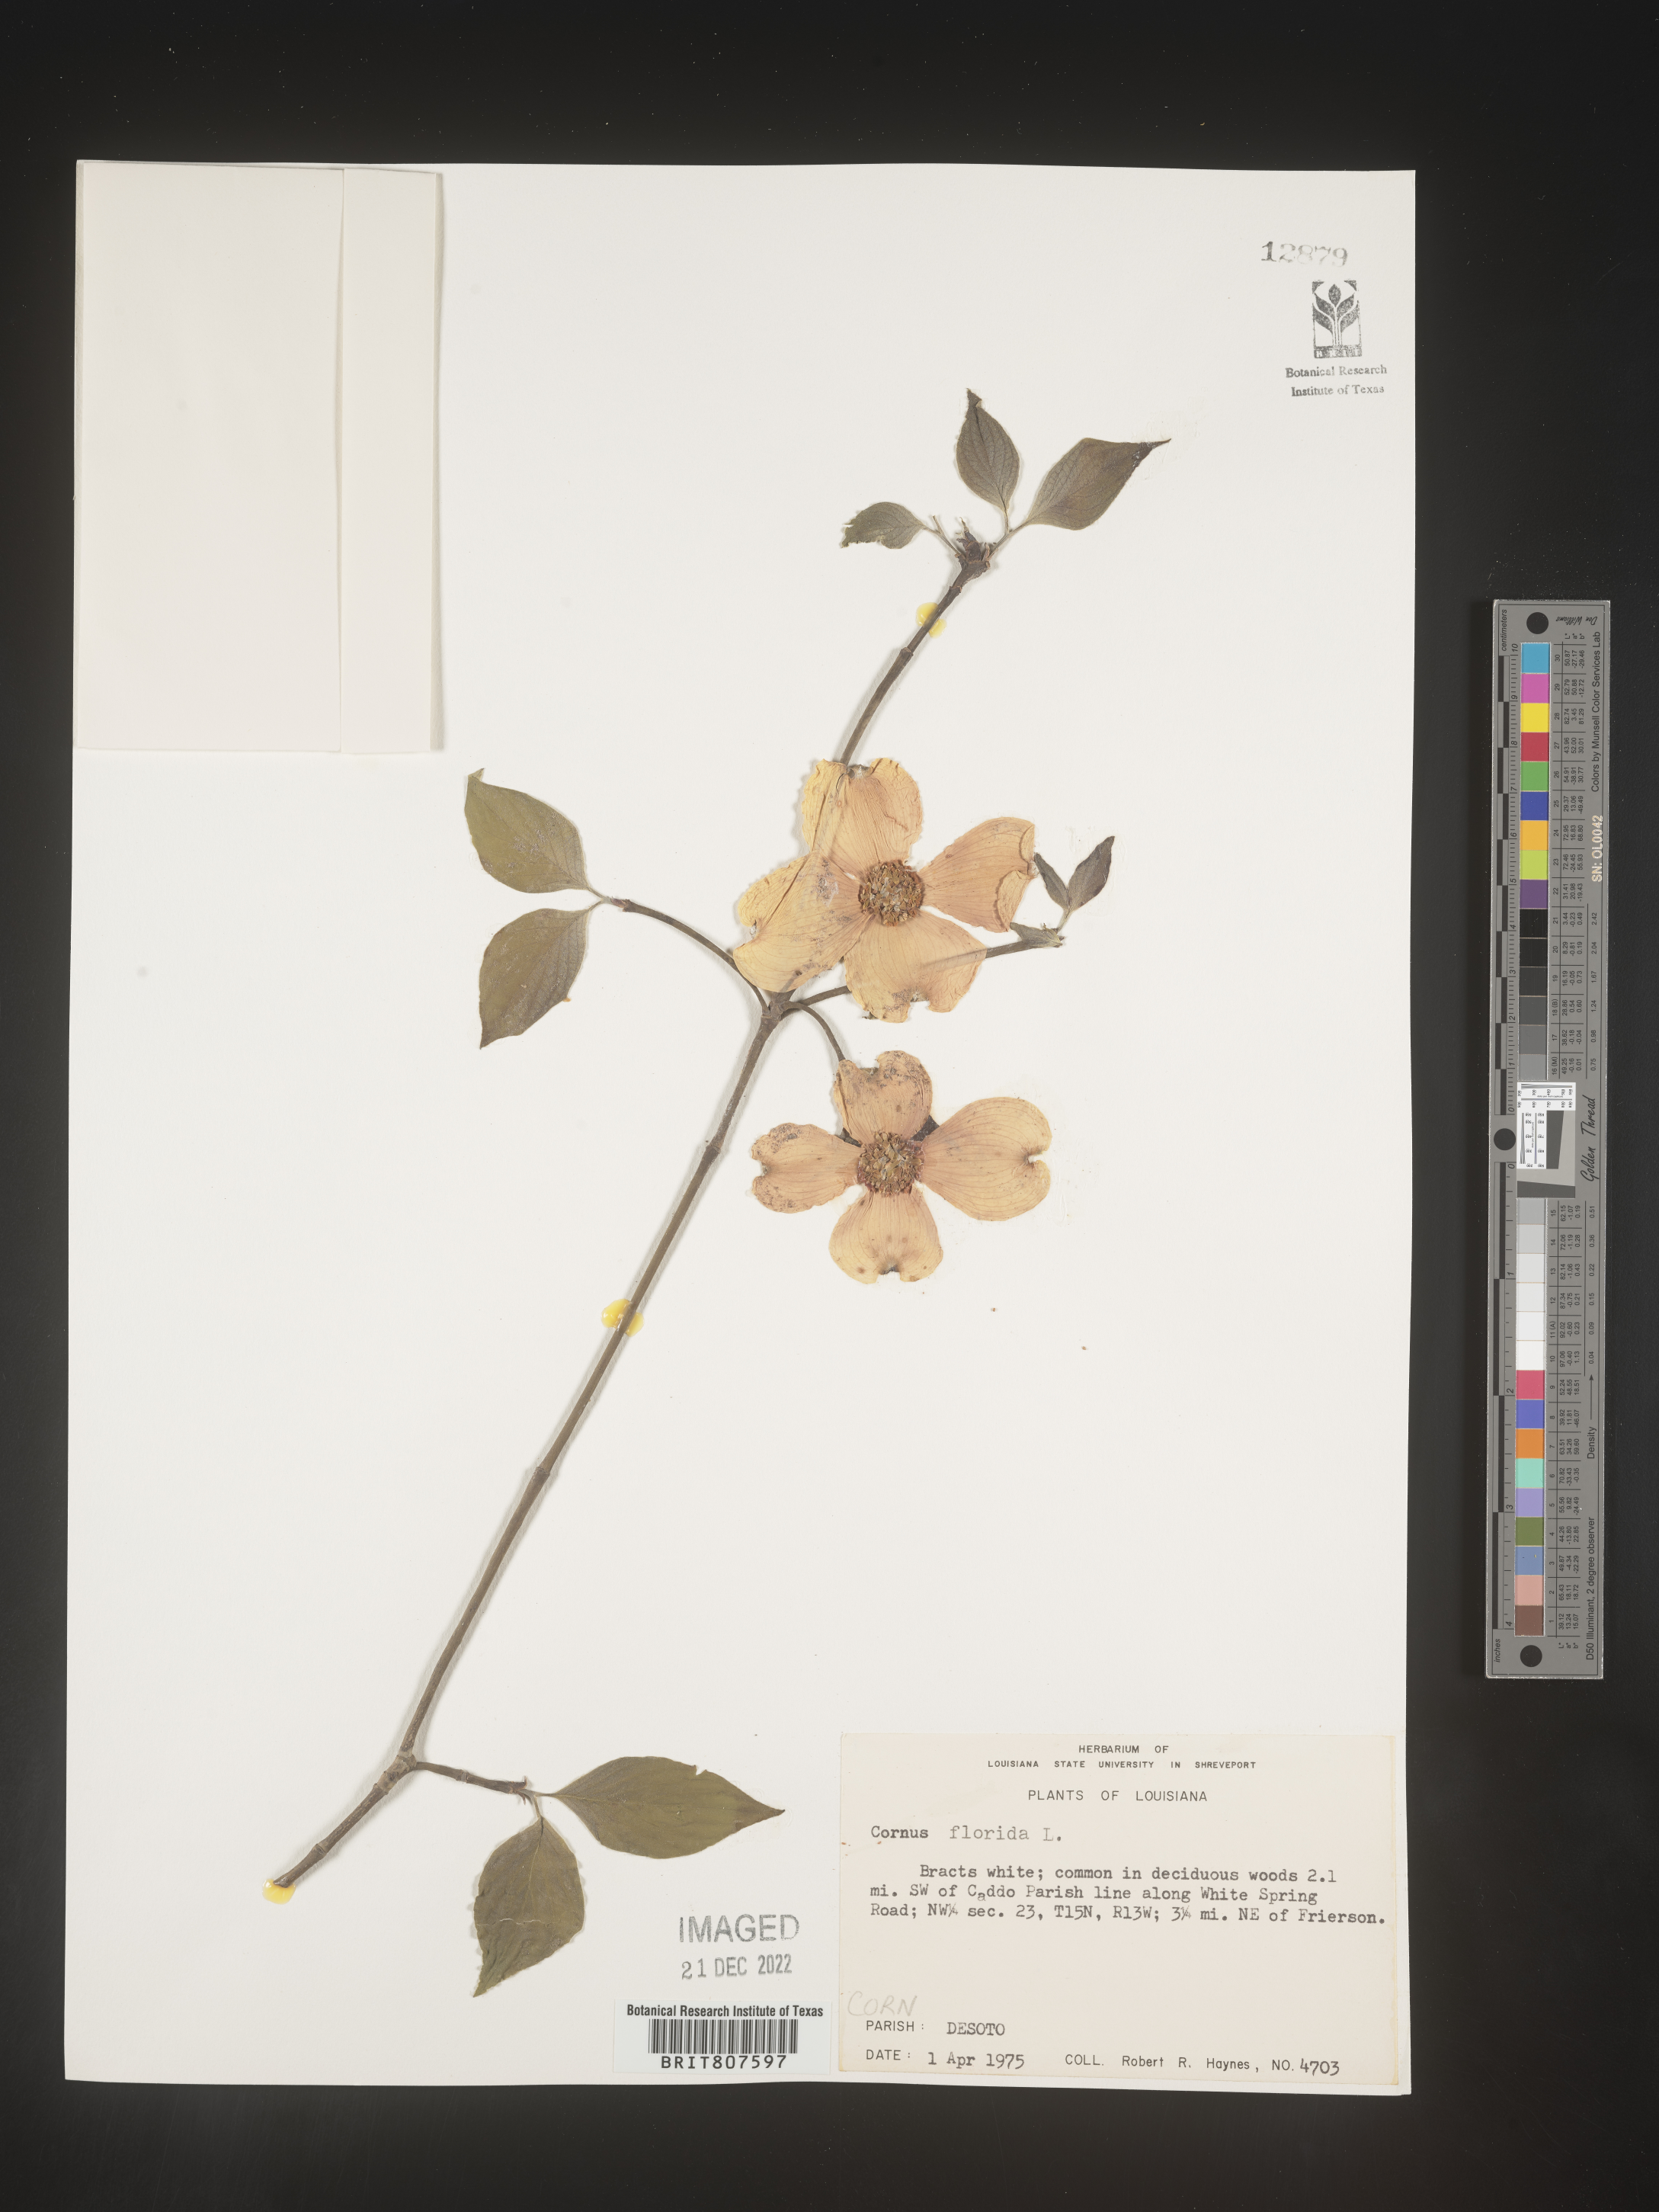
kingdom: Plantae
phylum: Tracheophyta
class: Magnoliopsida
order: Cornales
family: Cornaceae
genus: Cornus
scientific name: Cornus florida
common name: Flowering dogwood
